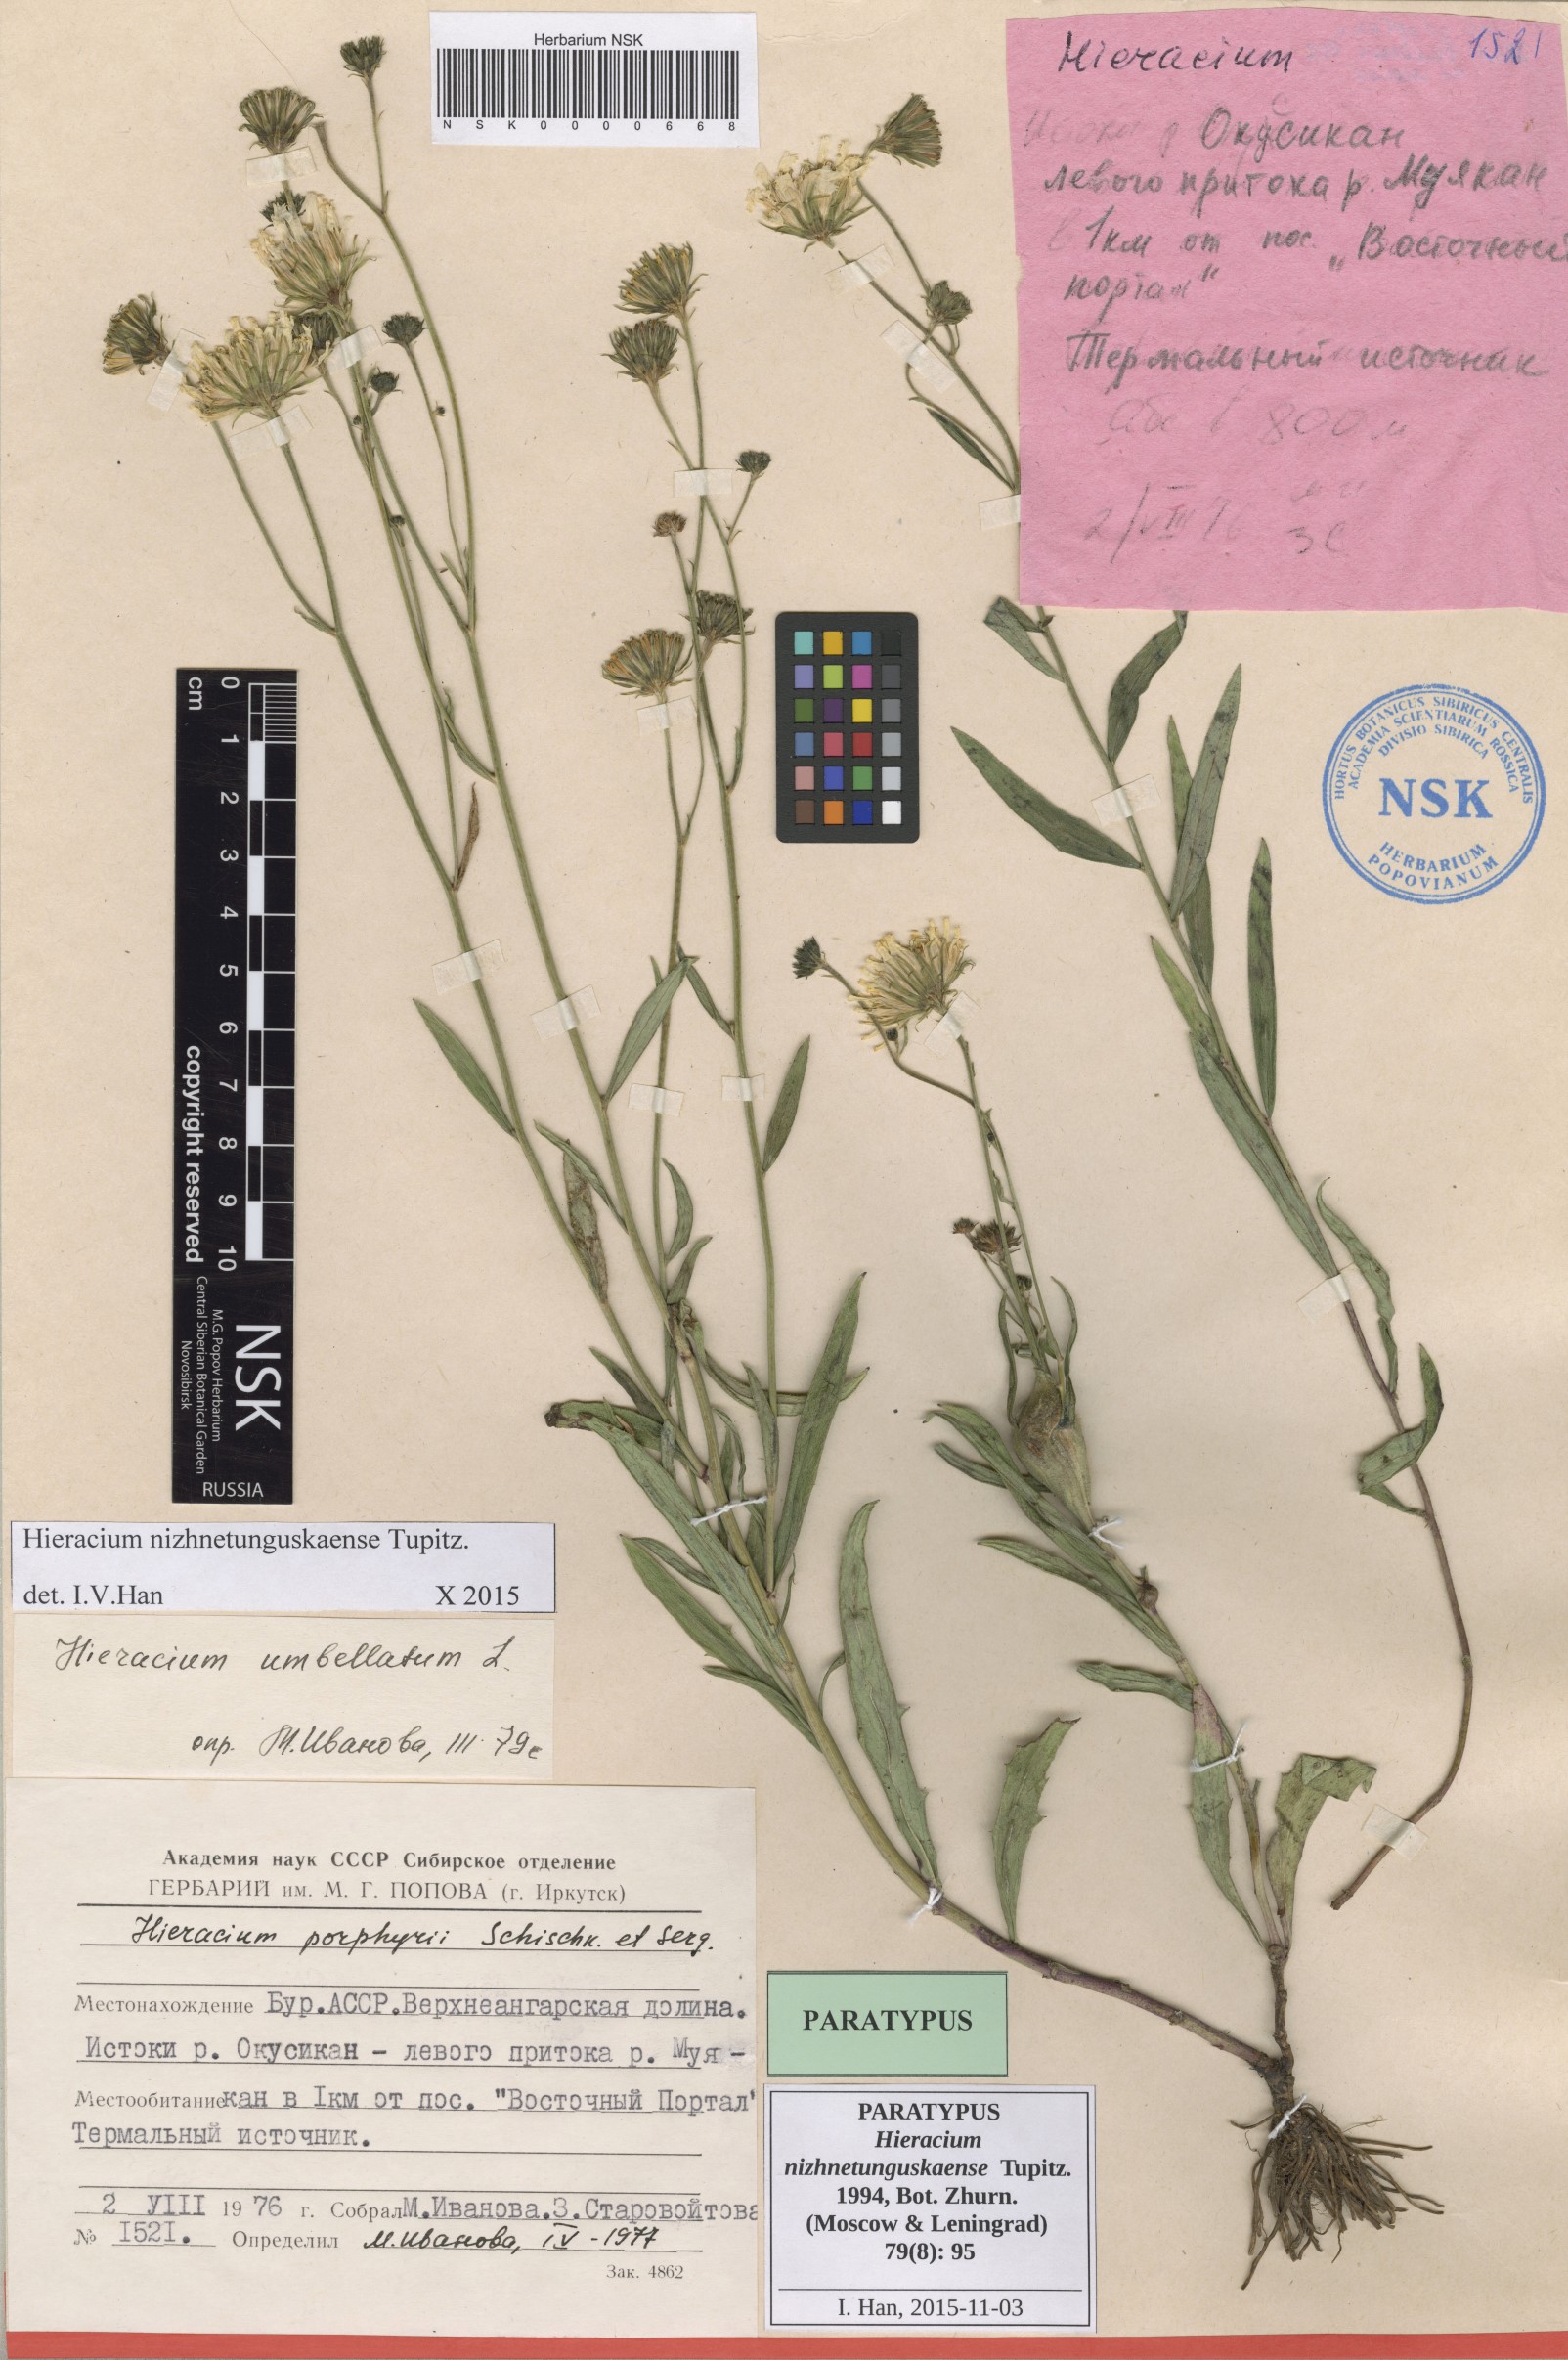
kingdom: Plantae
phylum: Tracheophyta
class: Magnoliopsida
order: Asterales
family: Asteraceae
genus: Hieracium
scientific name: Hieracium nizhnetunguskaense
